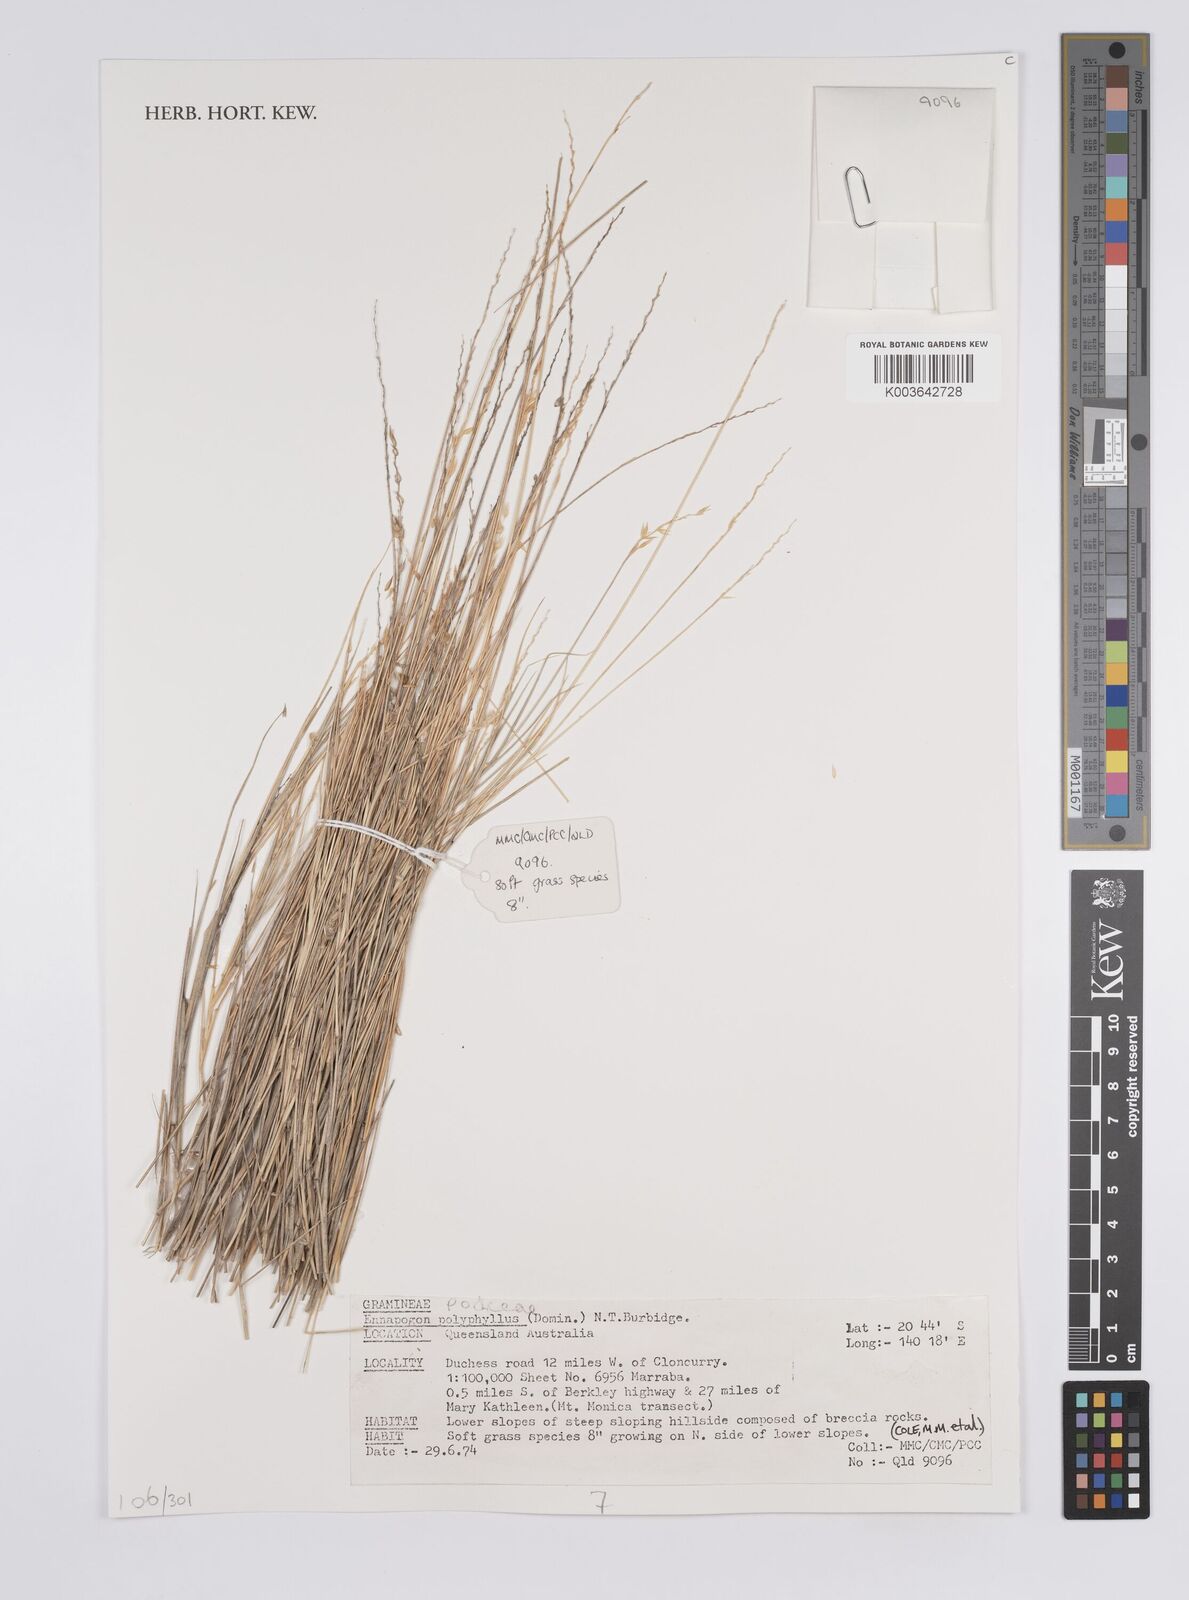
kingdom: Plantae
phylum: Tracheophyta
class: Liliopsida
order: Poales
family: Poaceae
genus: Enneapogon
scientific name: Enneapogon polyphyllus
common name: Leafy nineawn
